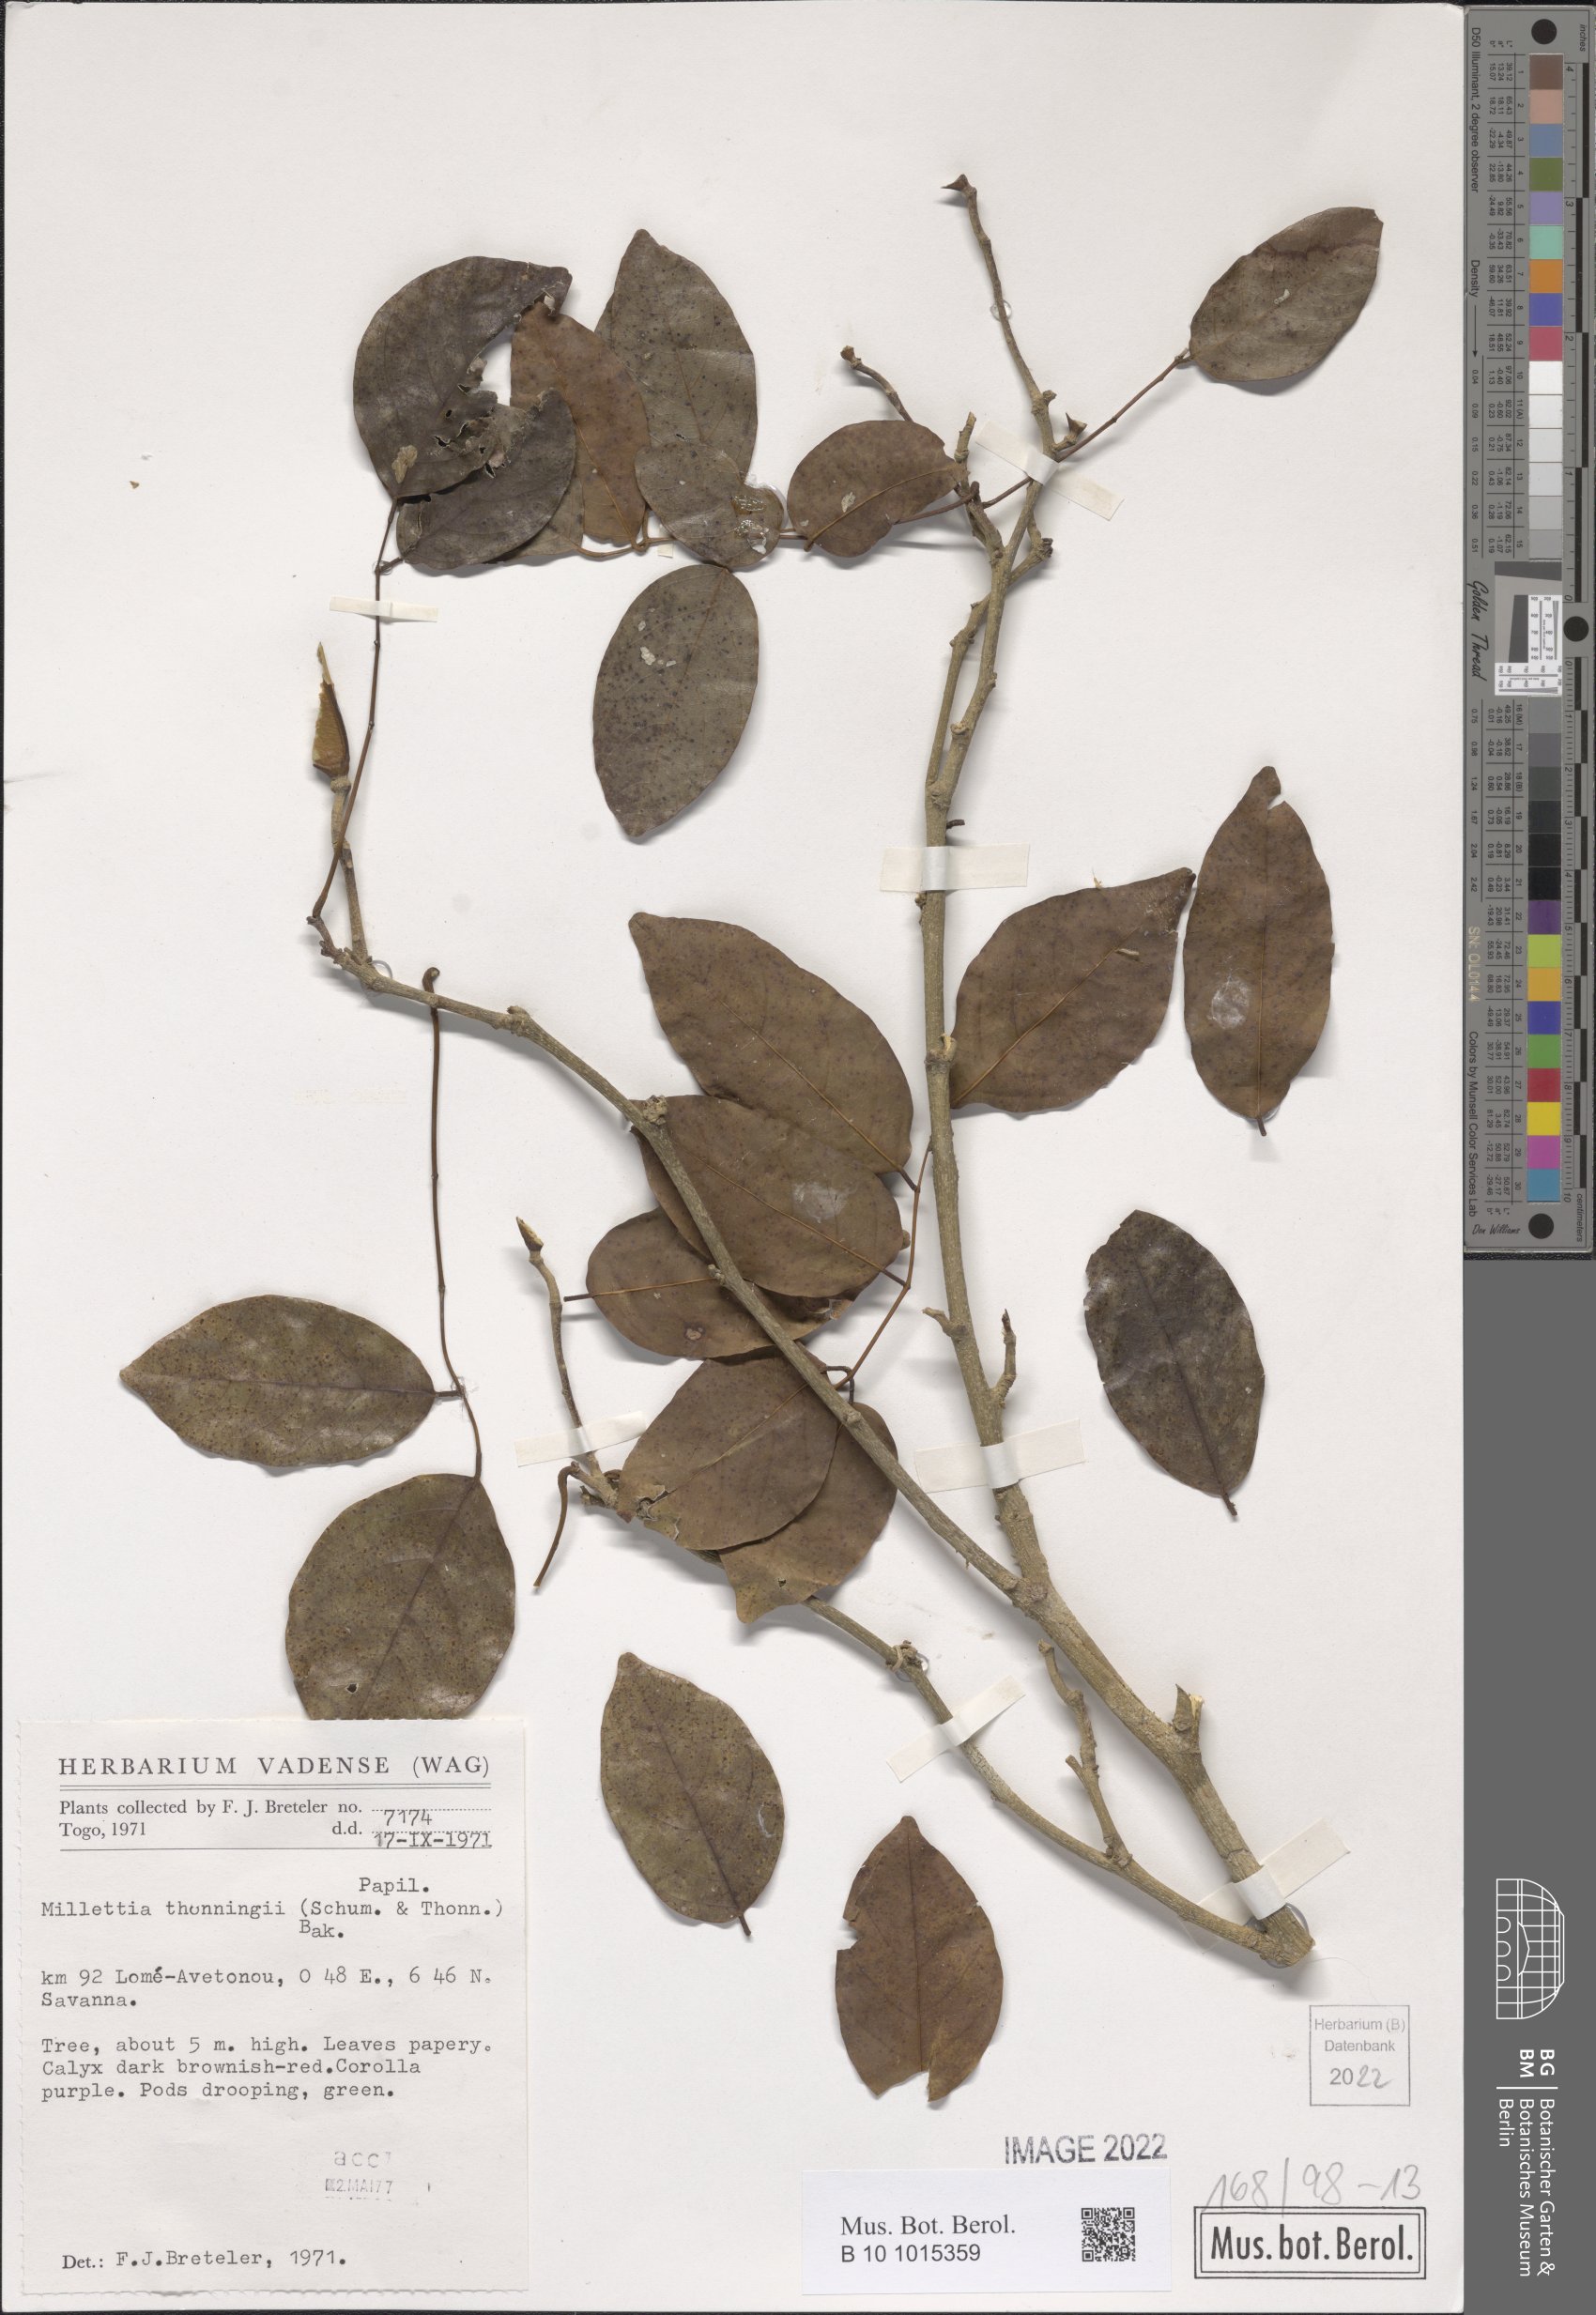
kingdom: Plantae
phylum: Tracheophyta
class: Magnoliopsida
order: Fabales
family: Fabaceae
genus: Millettia
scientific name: Millettia thonningii
